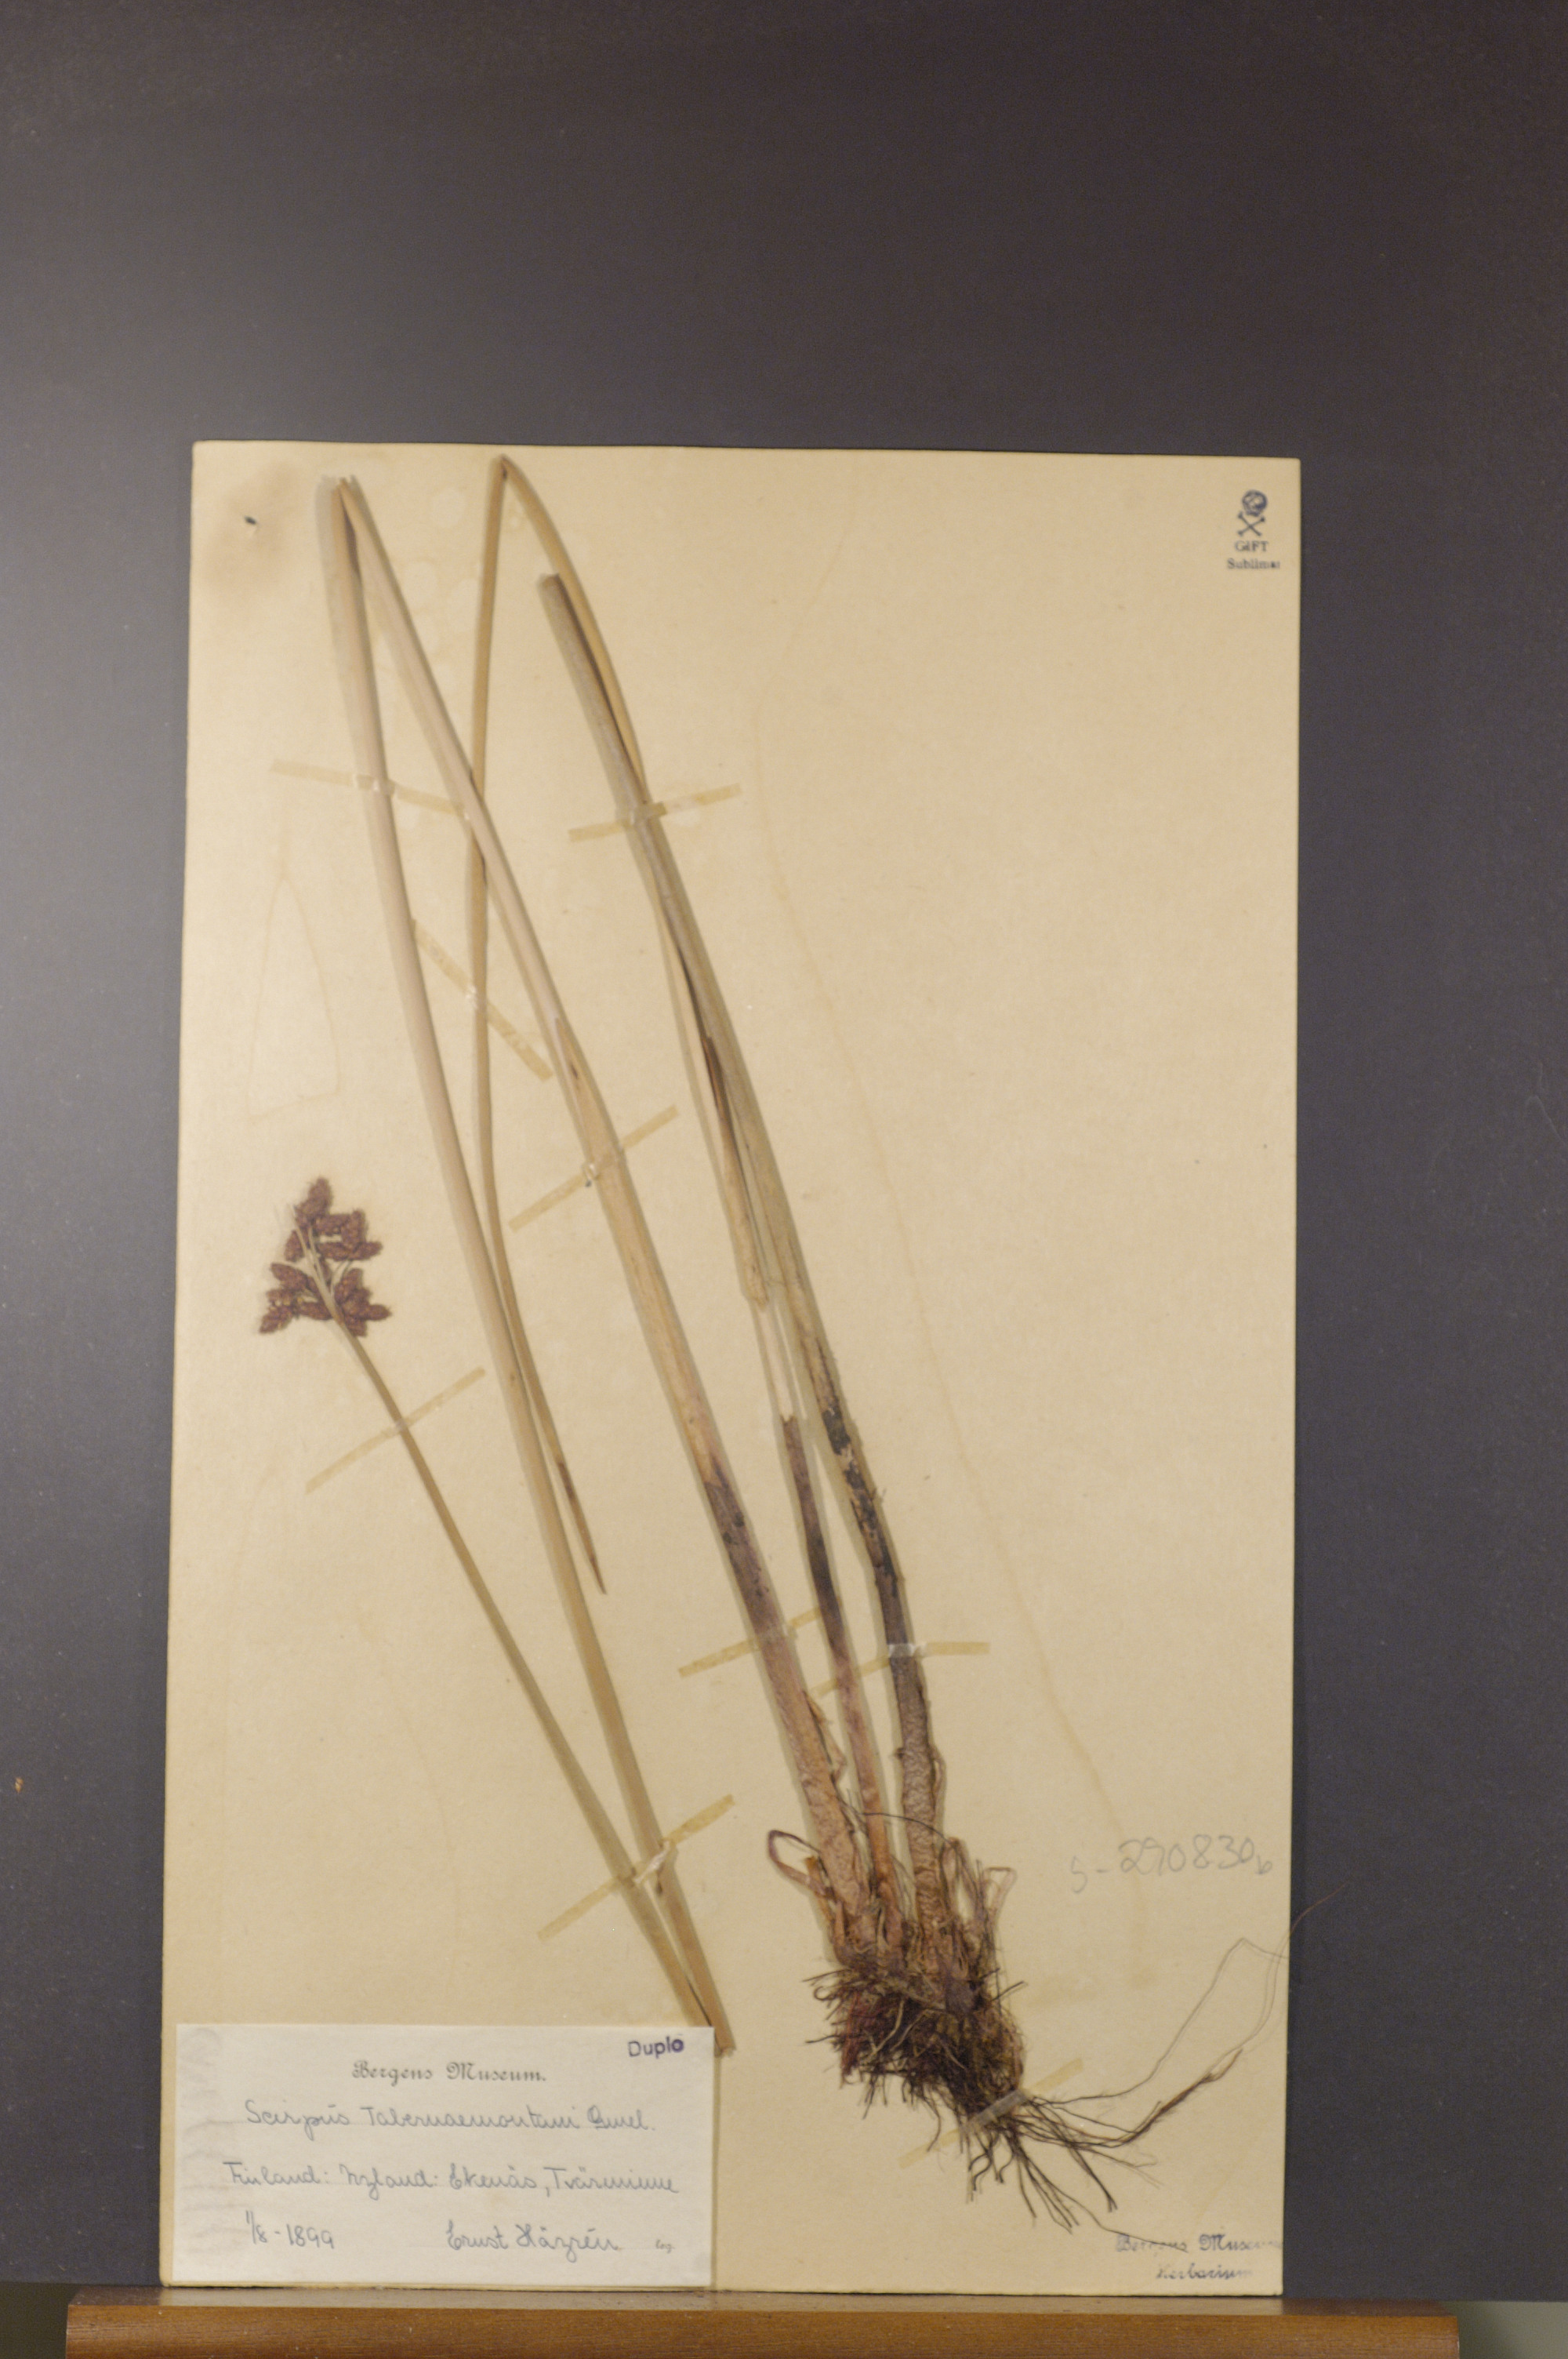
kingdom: Plantae
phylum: Tracheophyta
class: Liliopsida
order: Poales
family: Cyperaceae
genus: Schoenoplectus
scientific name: Schoenoplectus tabernaemontani
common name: Grey club-rush
